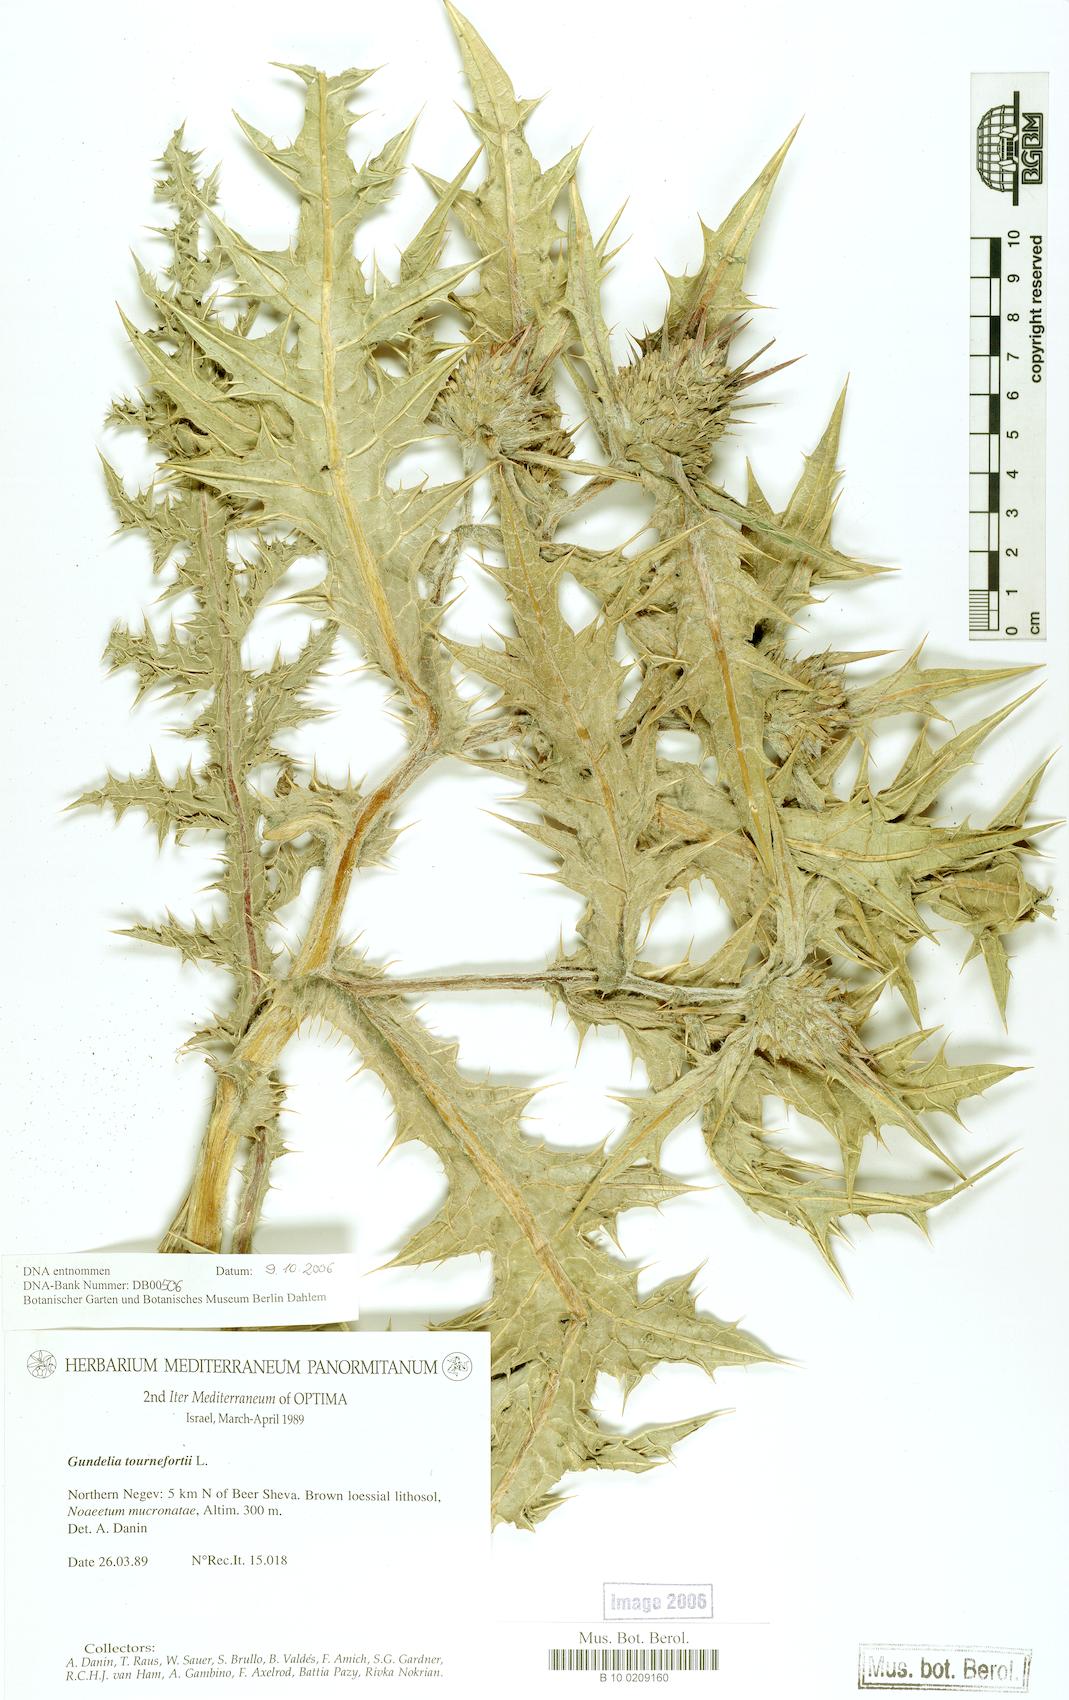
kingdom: Plantae
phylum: Tracheophyta
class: Magnoliopsida
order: Asterales
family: Asteraceae
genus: Gundelia
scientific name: Gundelia tournefortii
